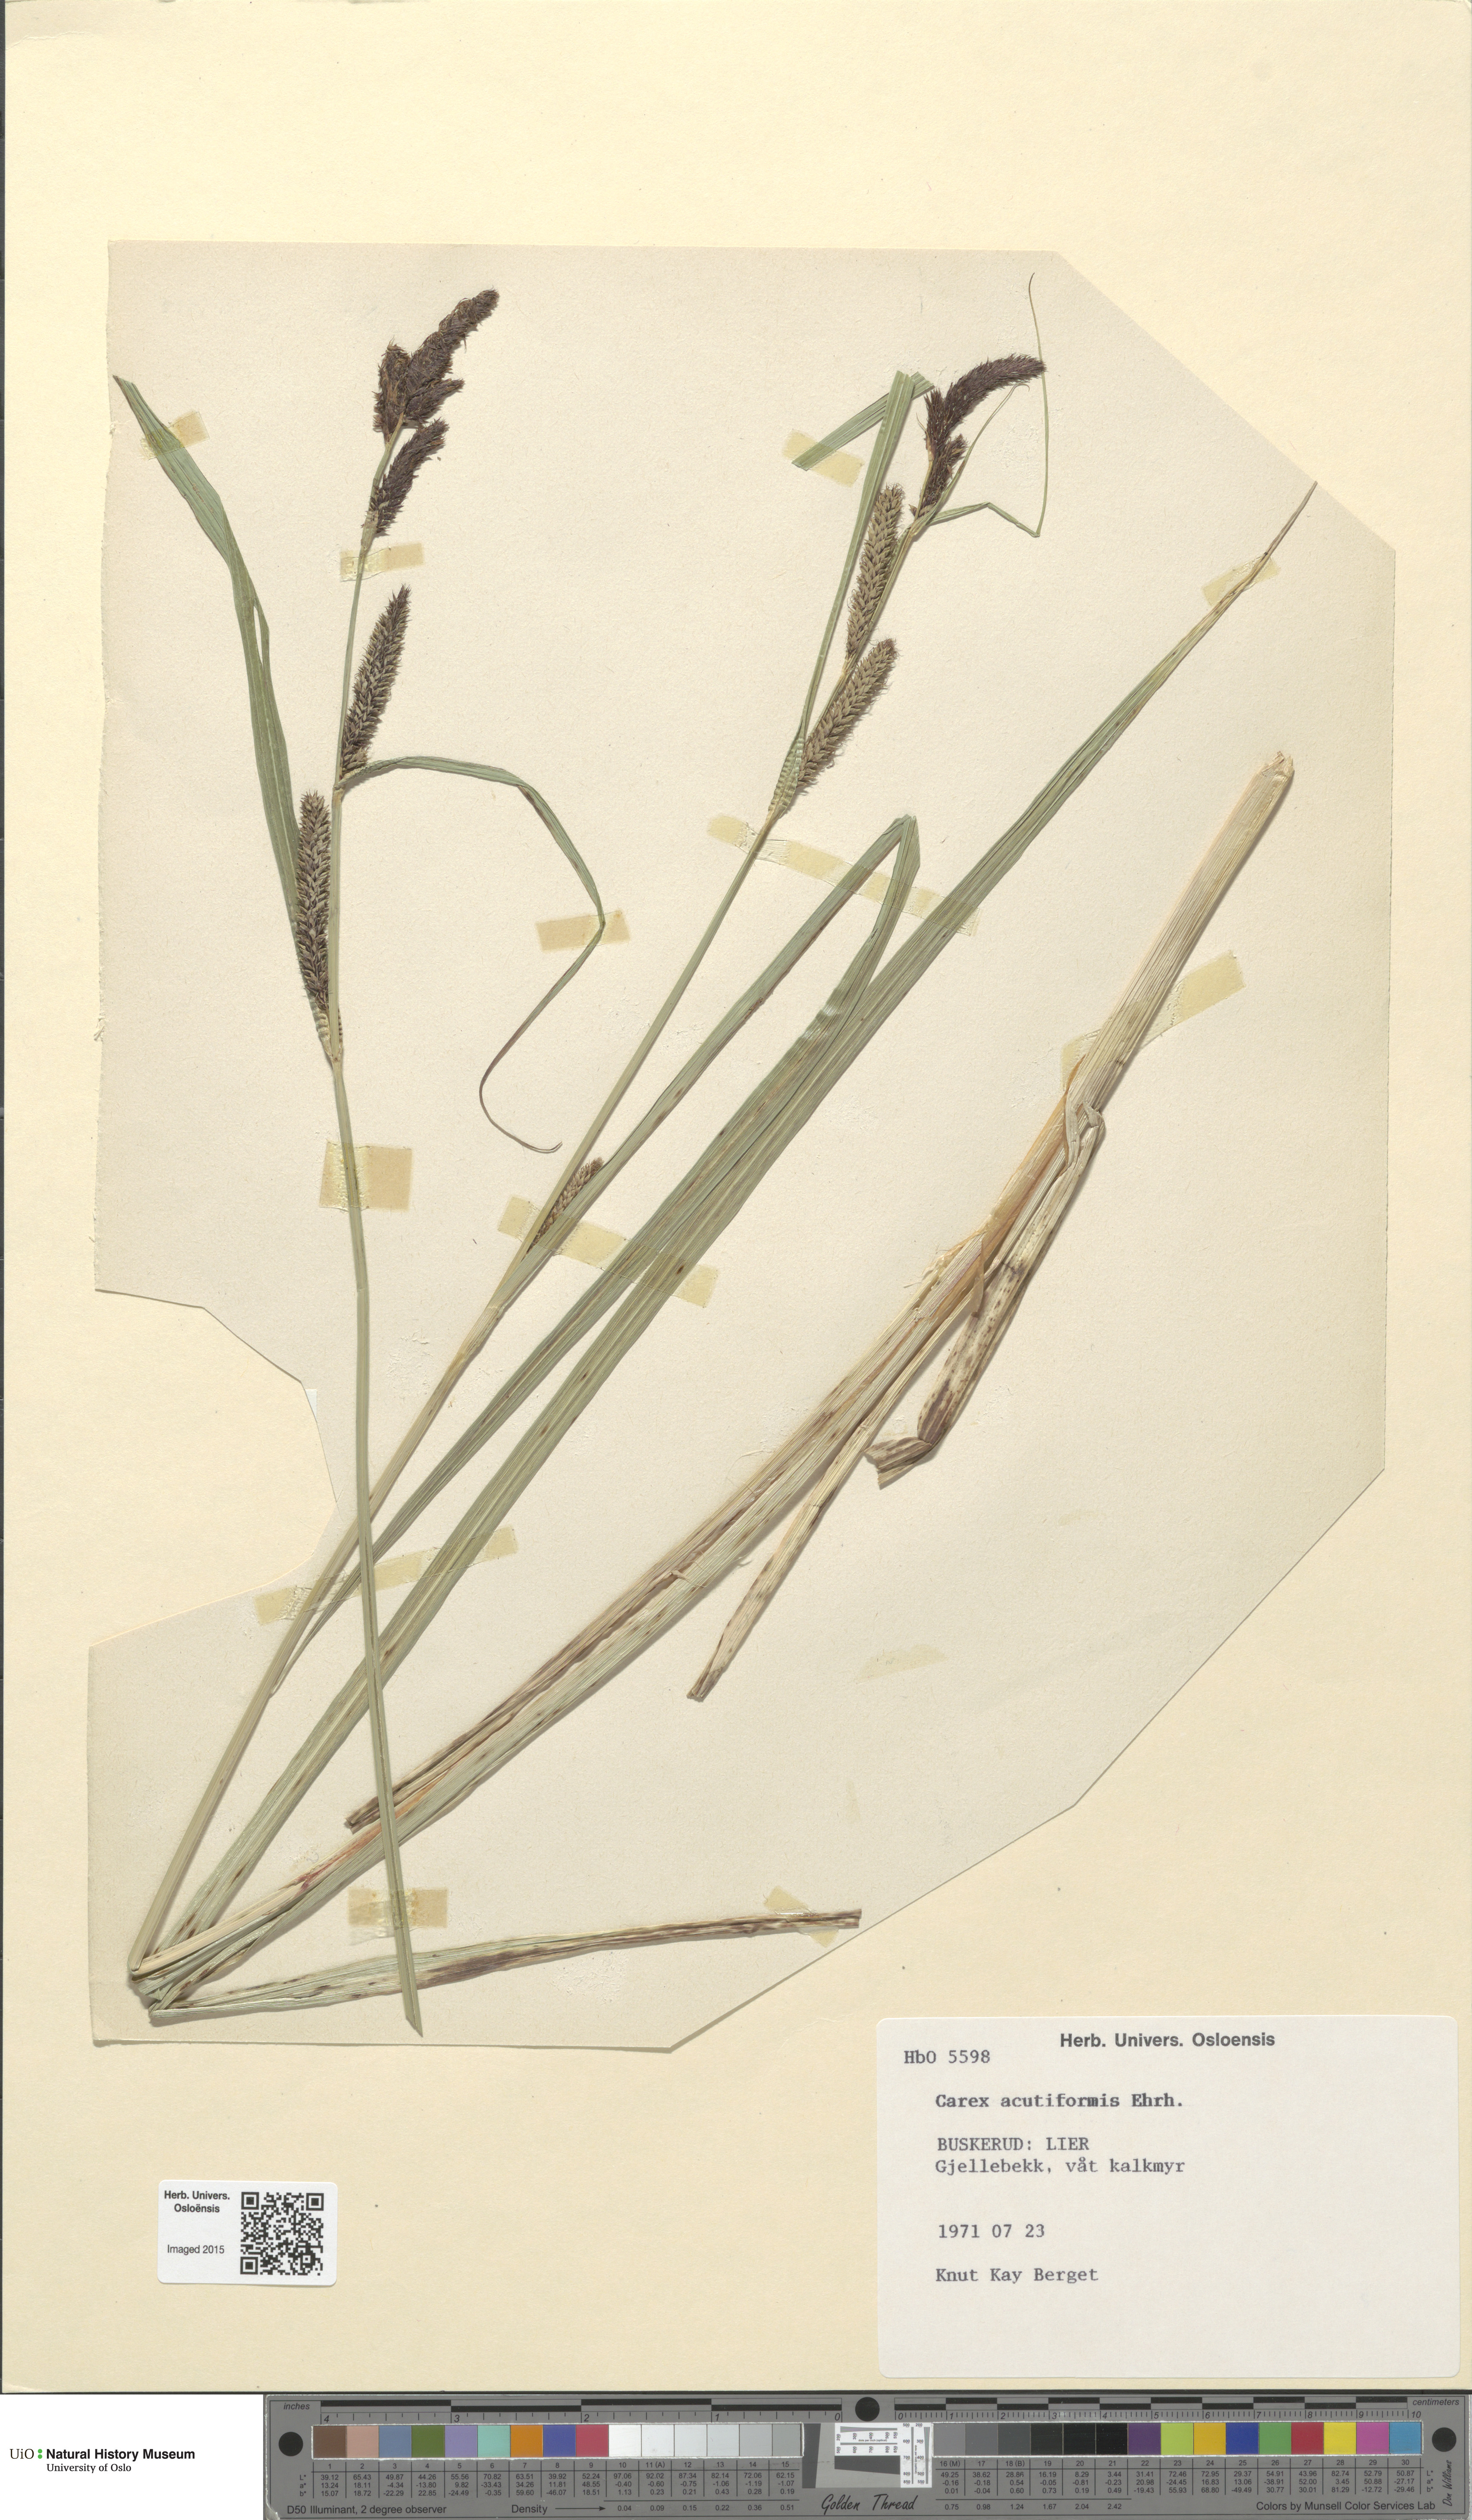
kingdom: Plantae
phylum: Tracheophyta
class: Liliopsida
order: Poales
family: Cyperaceae
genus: Carex
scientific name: Carex acutiformis
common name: Lesser pond-sedge
